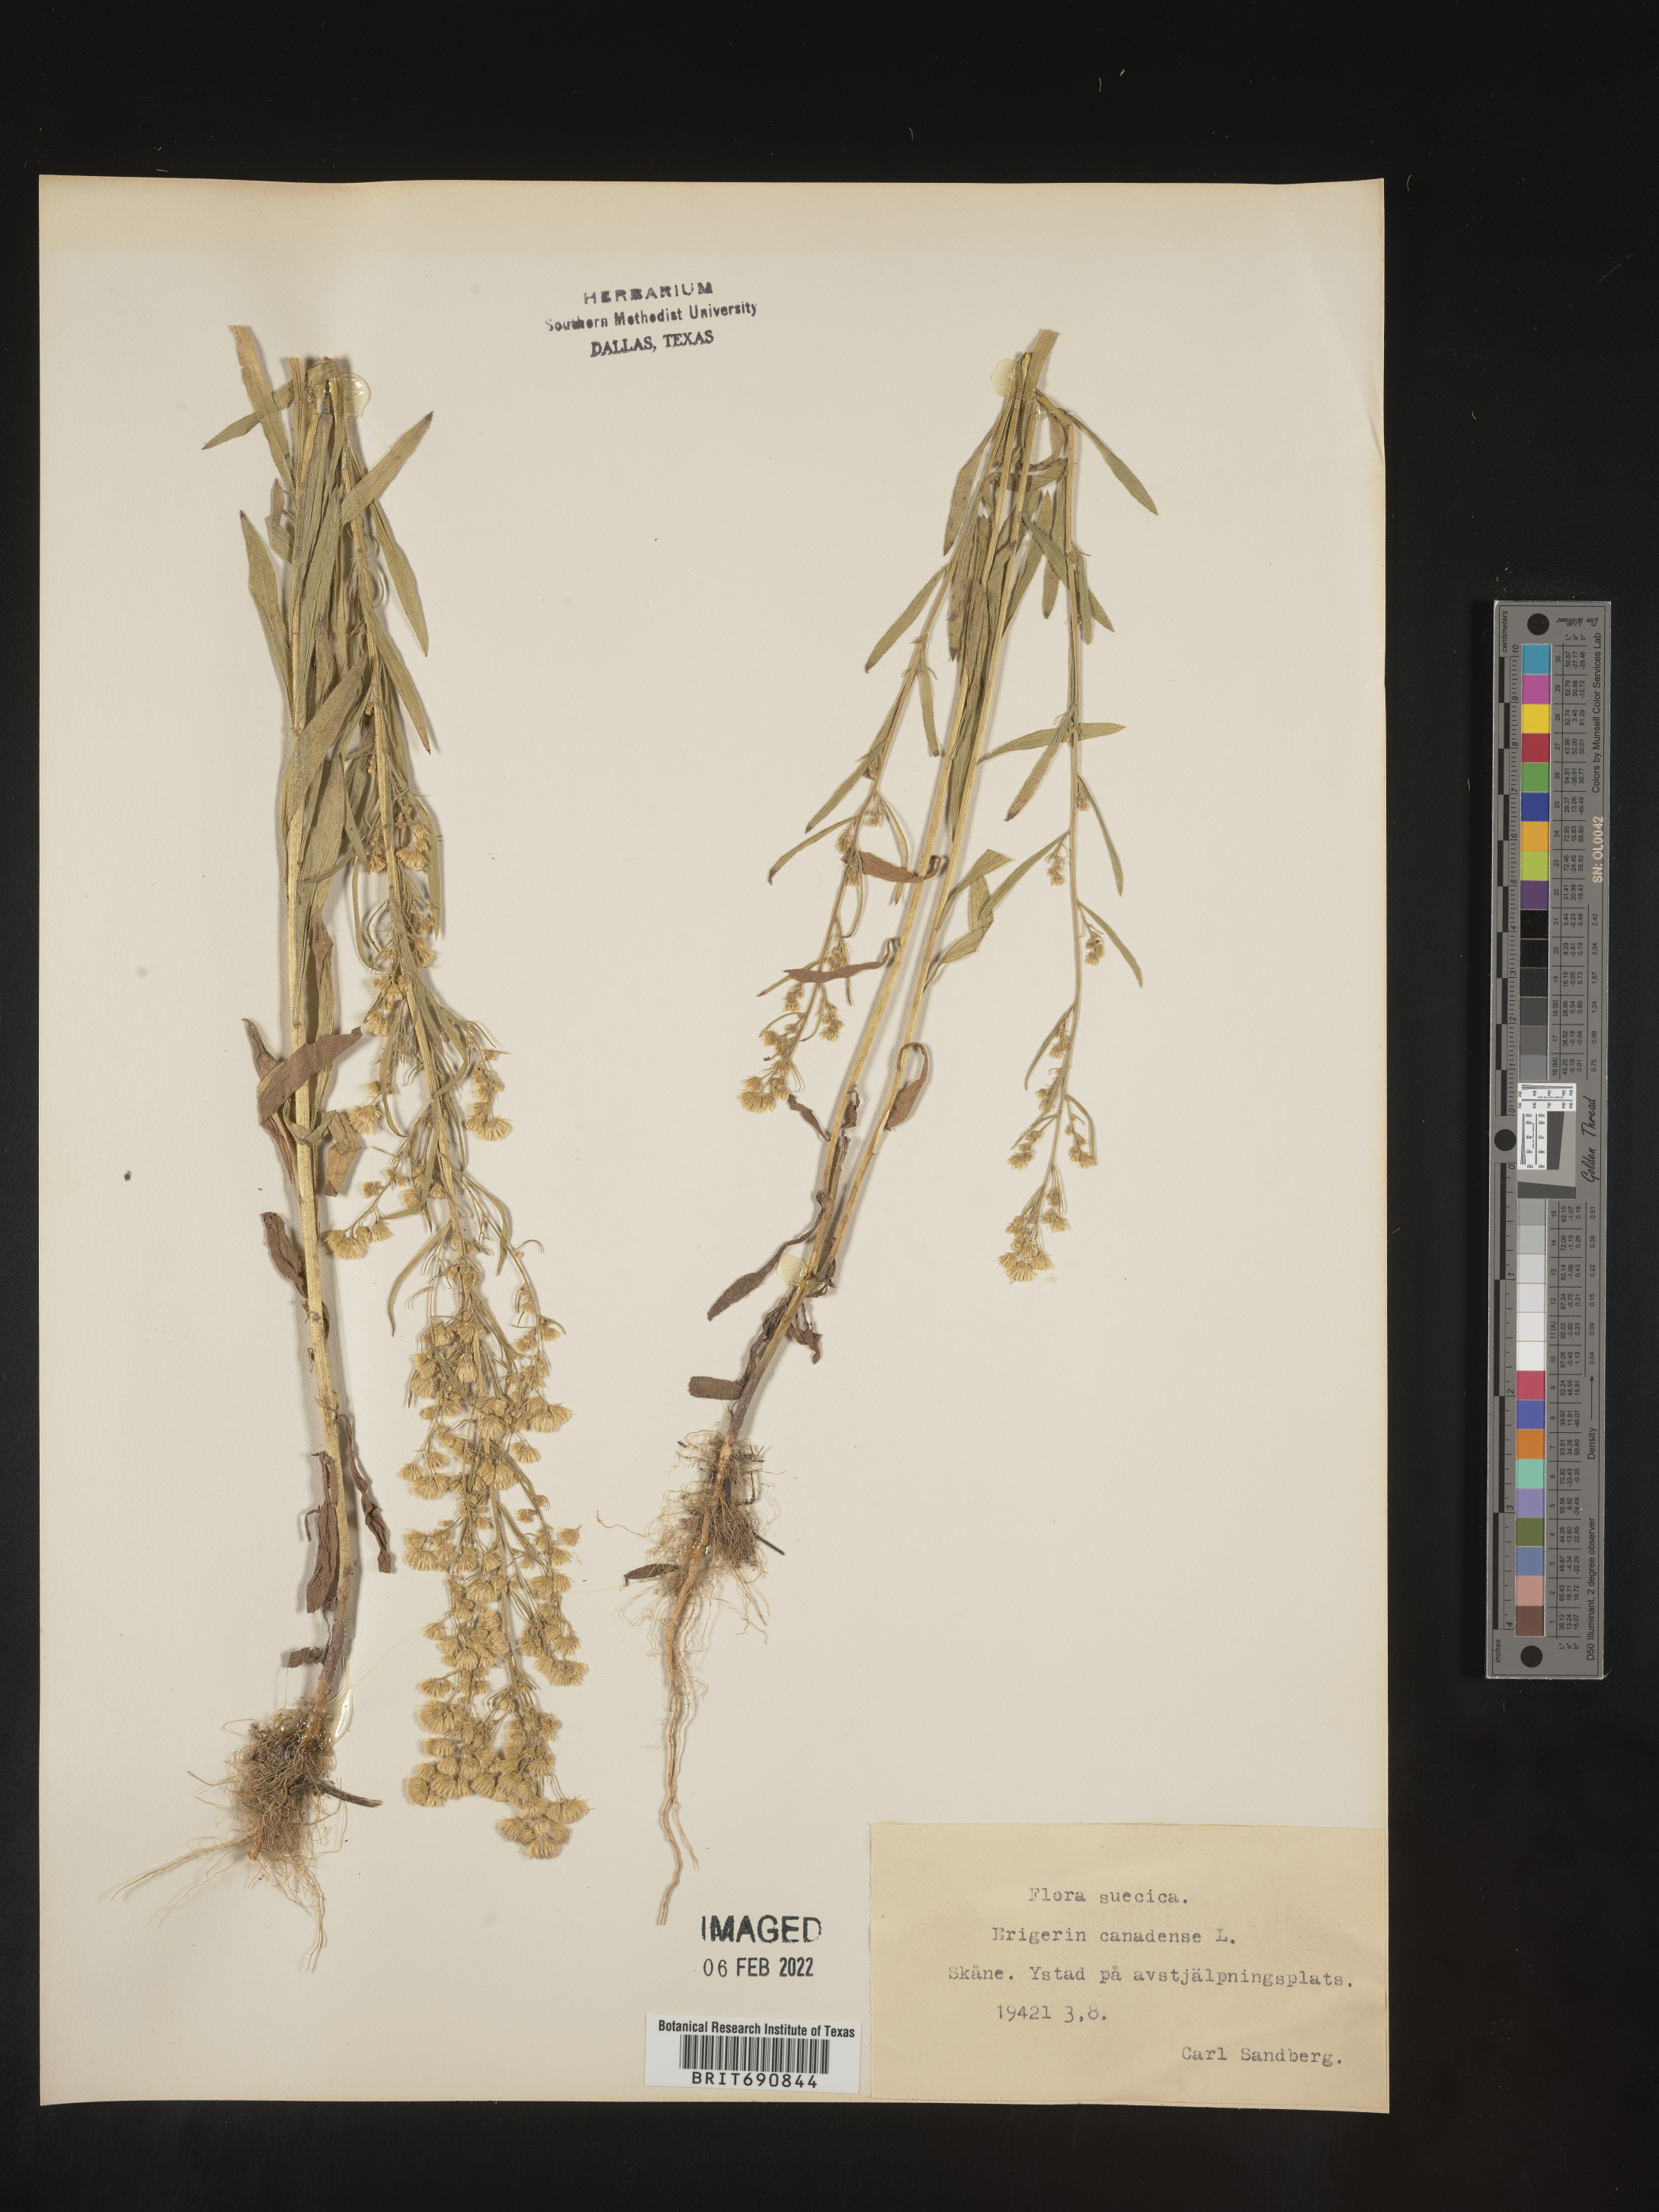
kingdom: Plantae
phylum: Tracheophyta
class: Magnoliopsida
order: Asterales
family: Asteraceae
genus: Conyza
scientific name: Conyza
